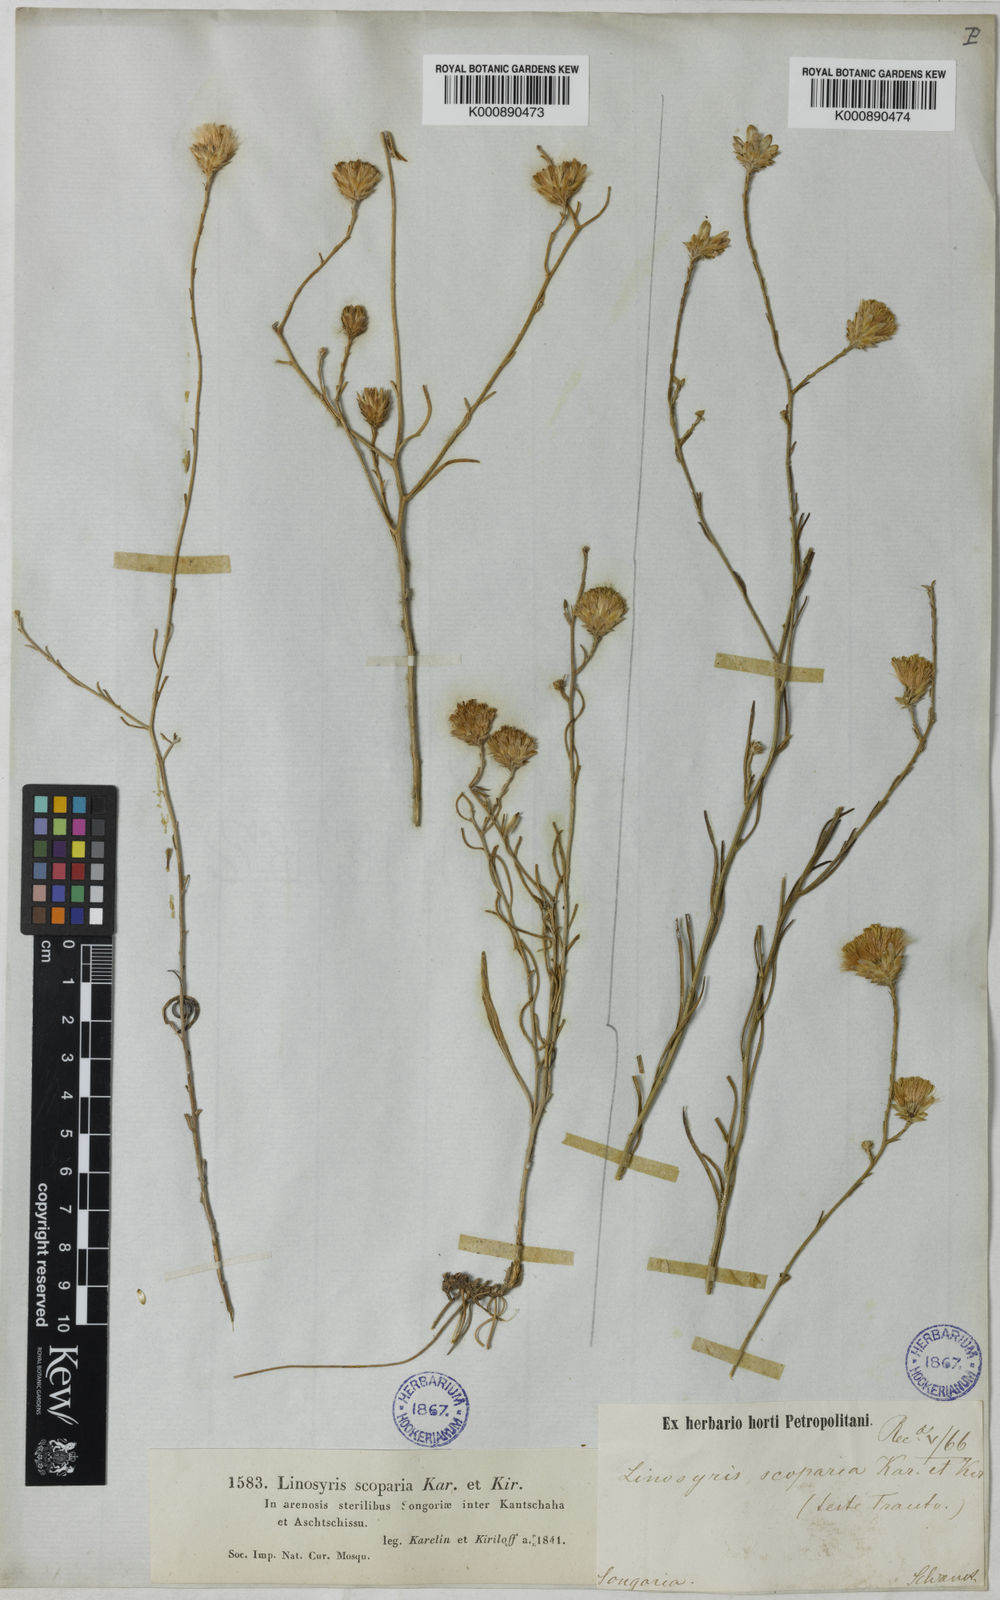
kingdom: Plantae
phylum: Tracheophyta
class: Magnoliopsida
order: Asterales
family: Asteraceae
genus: Aster
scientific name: Aster
